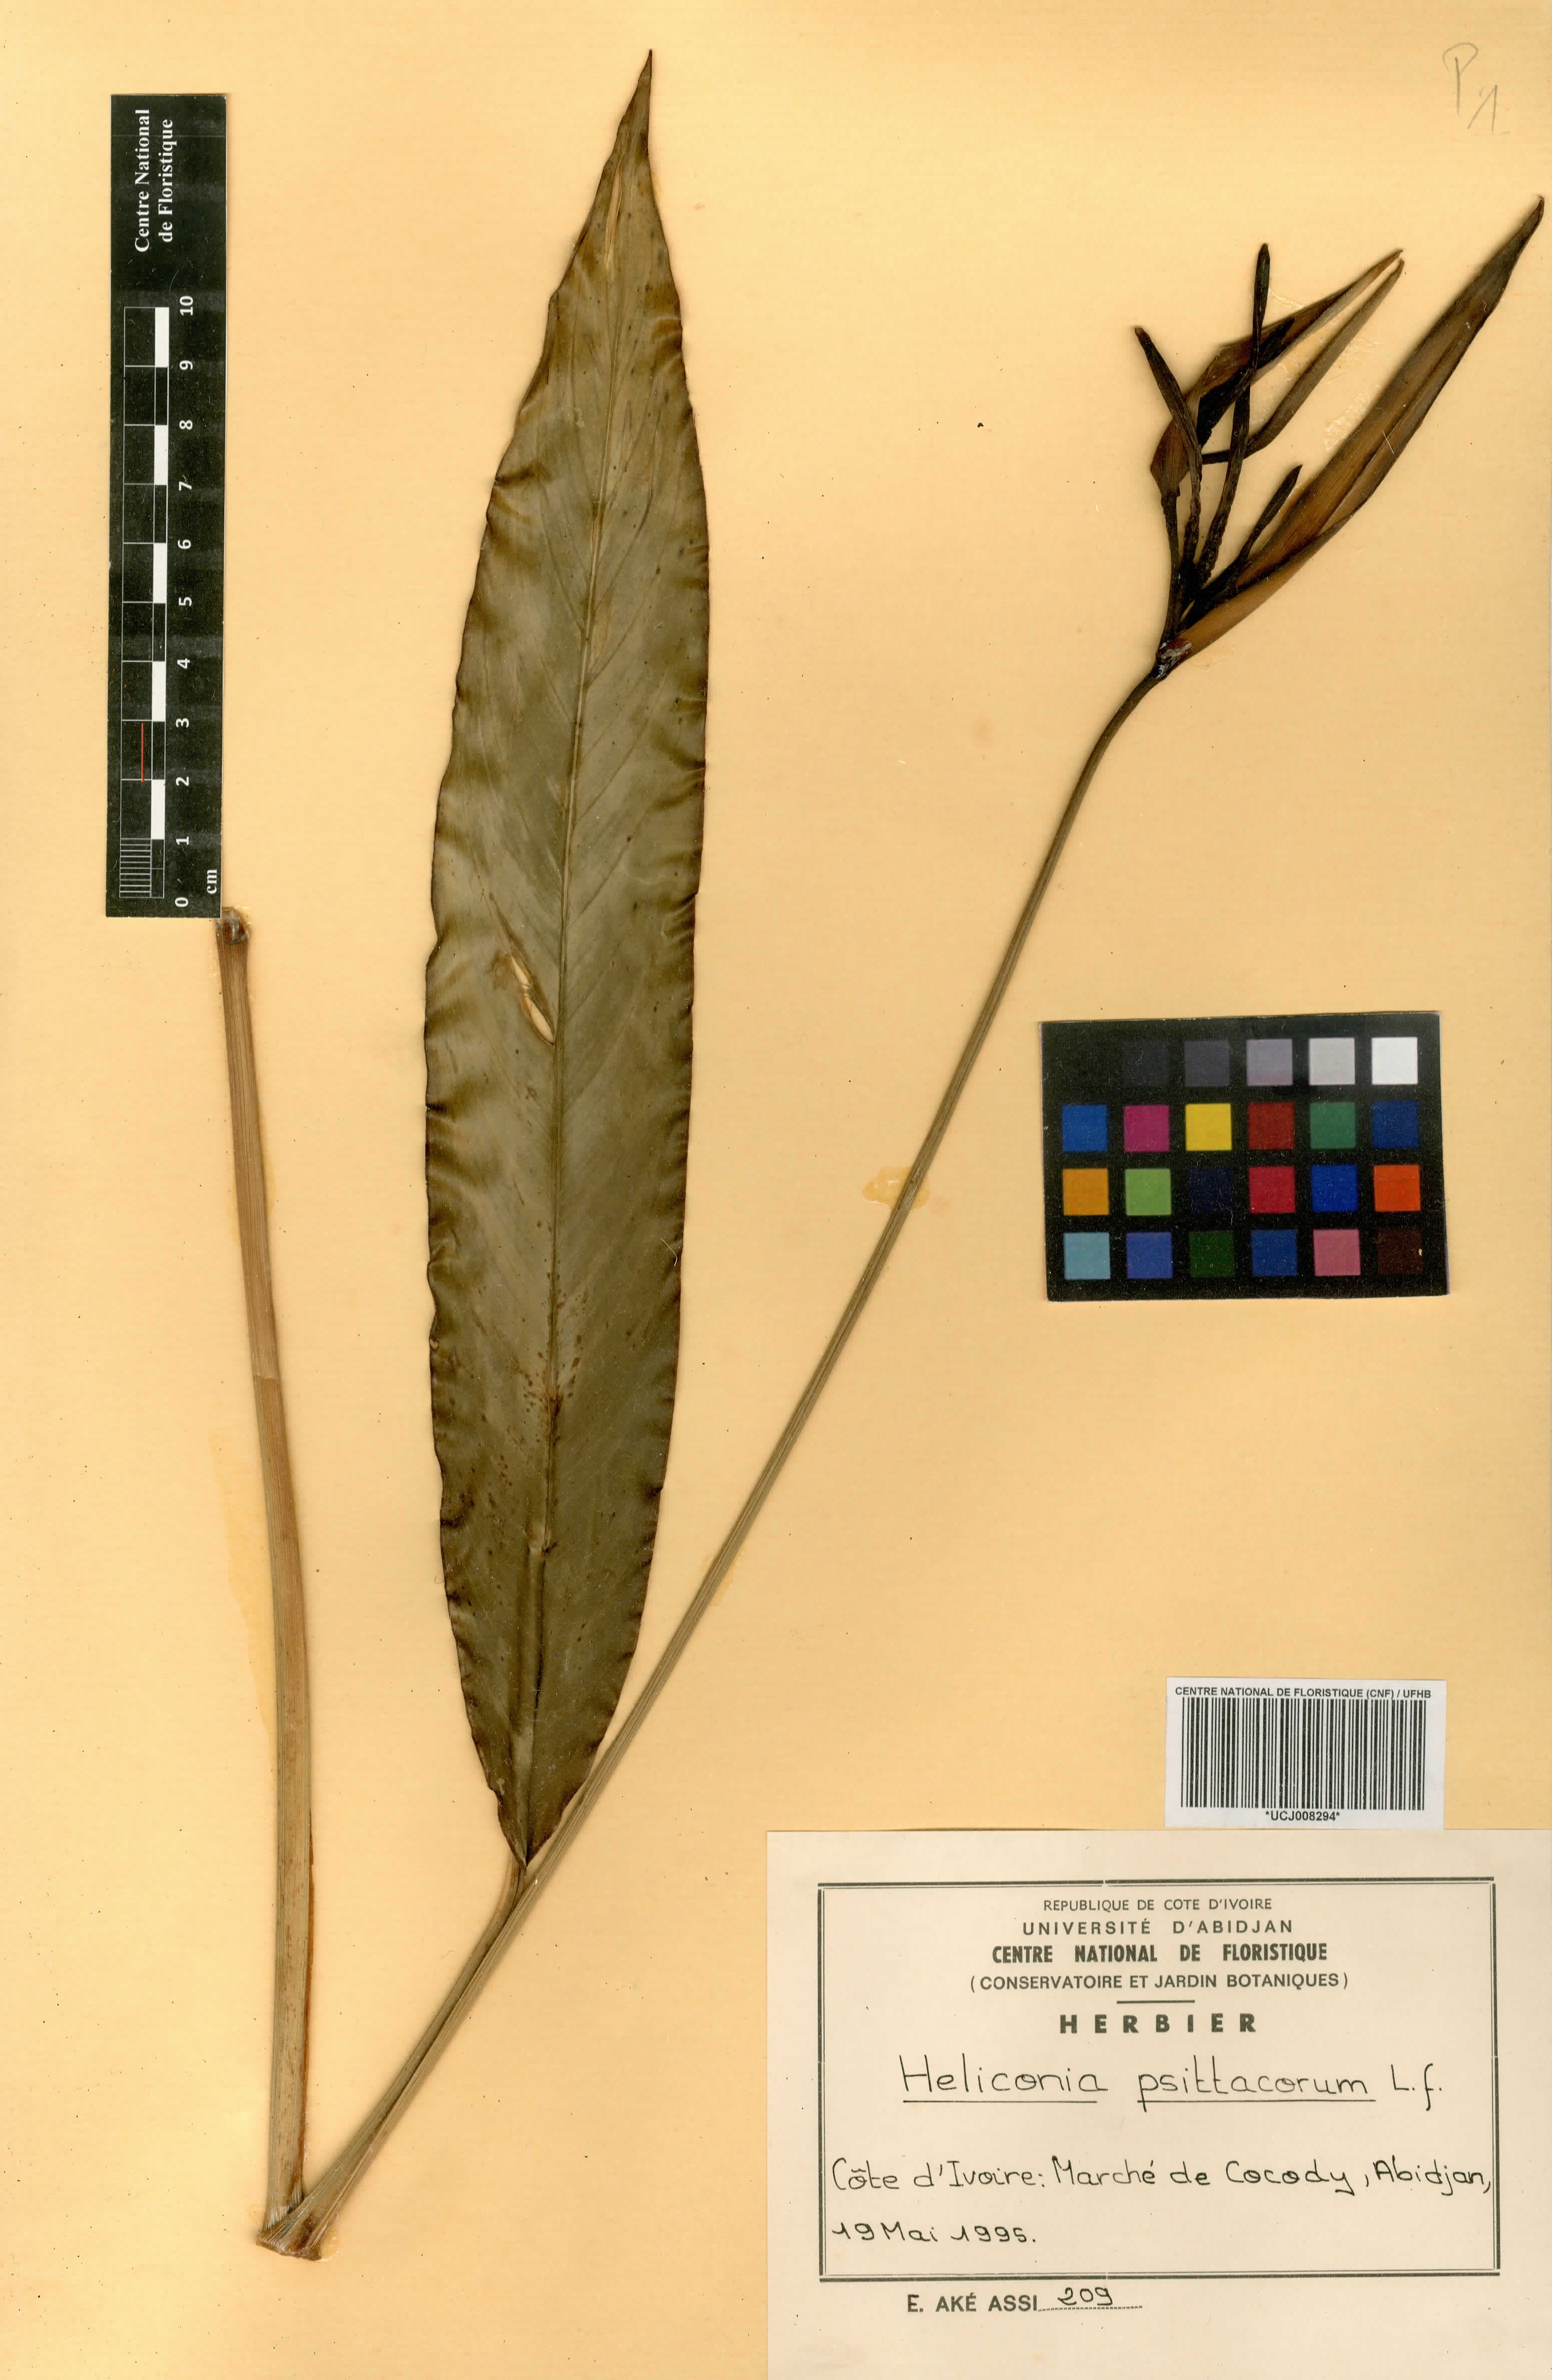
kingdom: Plantae
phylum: Tracheophyta
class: Liliopsida
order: Zingiberales
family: Heliconiaceae
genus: Heliconia
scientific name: Heliconia psittacorum
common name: Parrot's-flower
